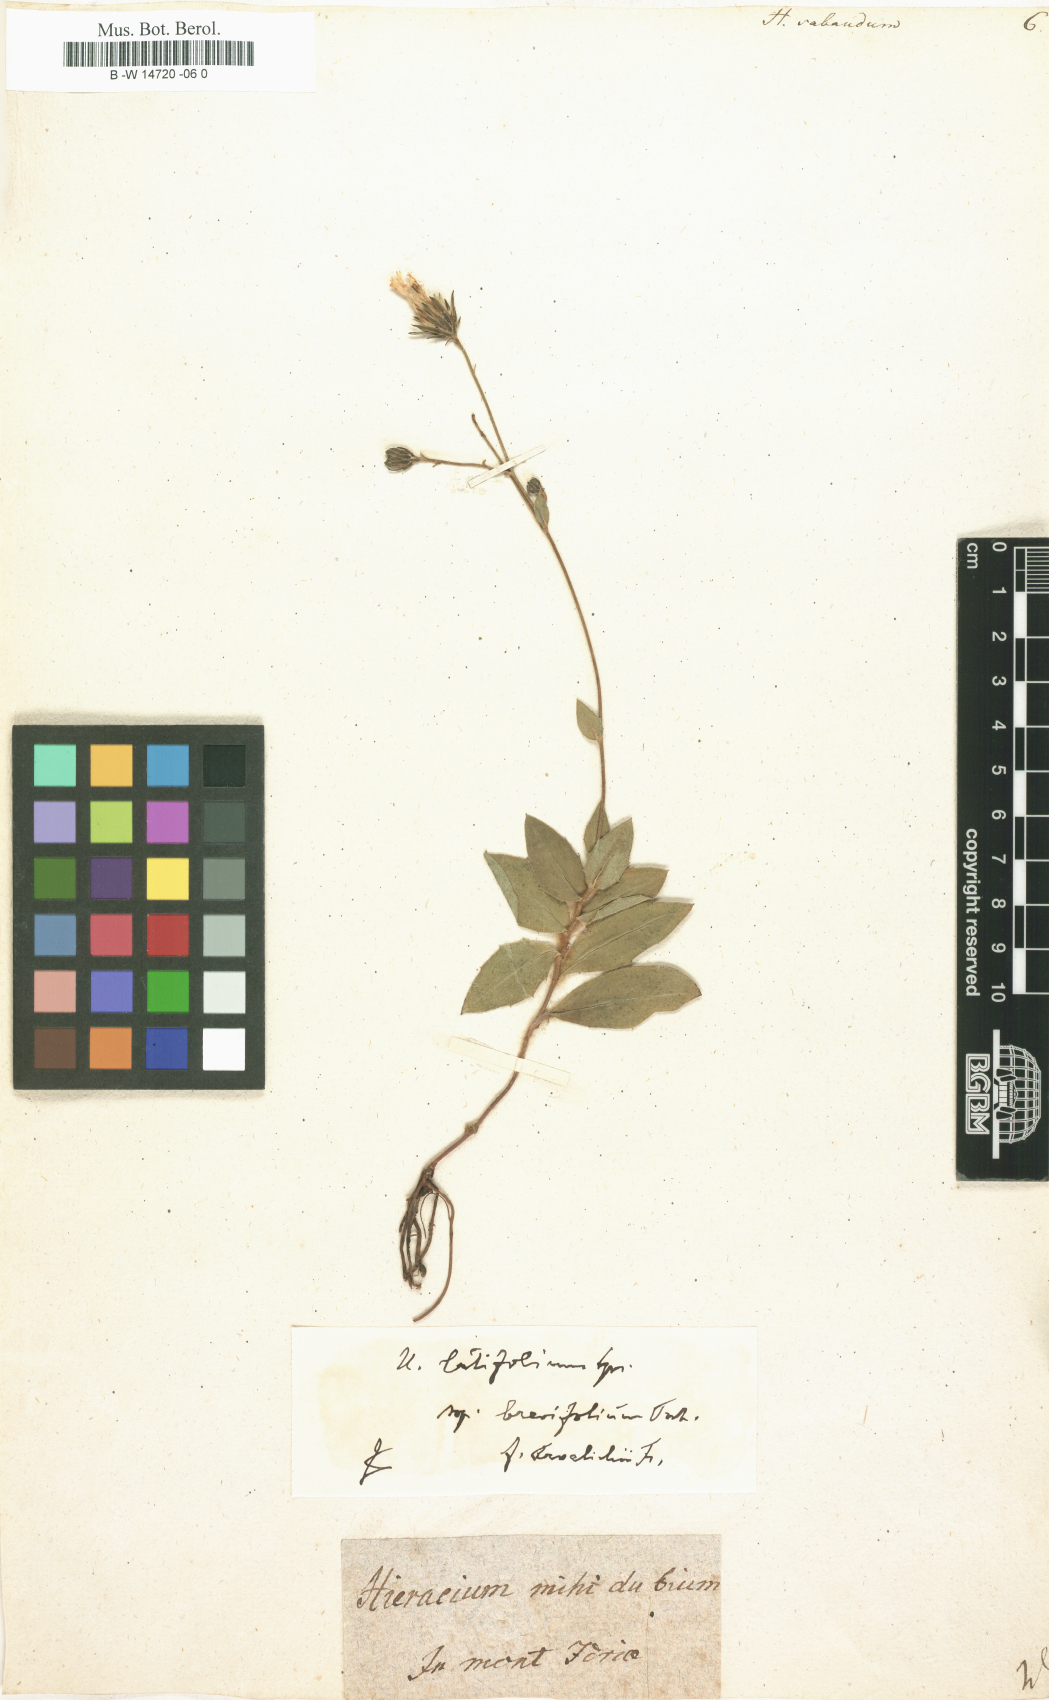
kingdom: Plantae
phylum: Tracheophyta
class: Magnoliopsida
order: Asterales
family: Asteraceae
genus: Hieracium
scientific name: Hieracium sabaudum
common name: New england hawkweed
